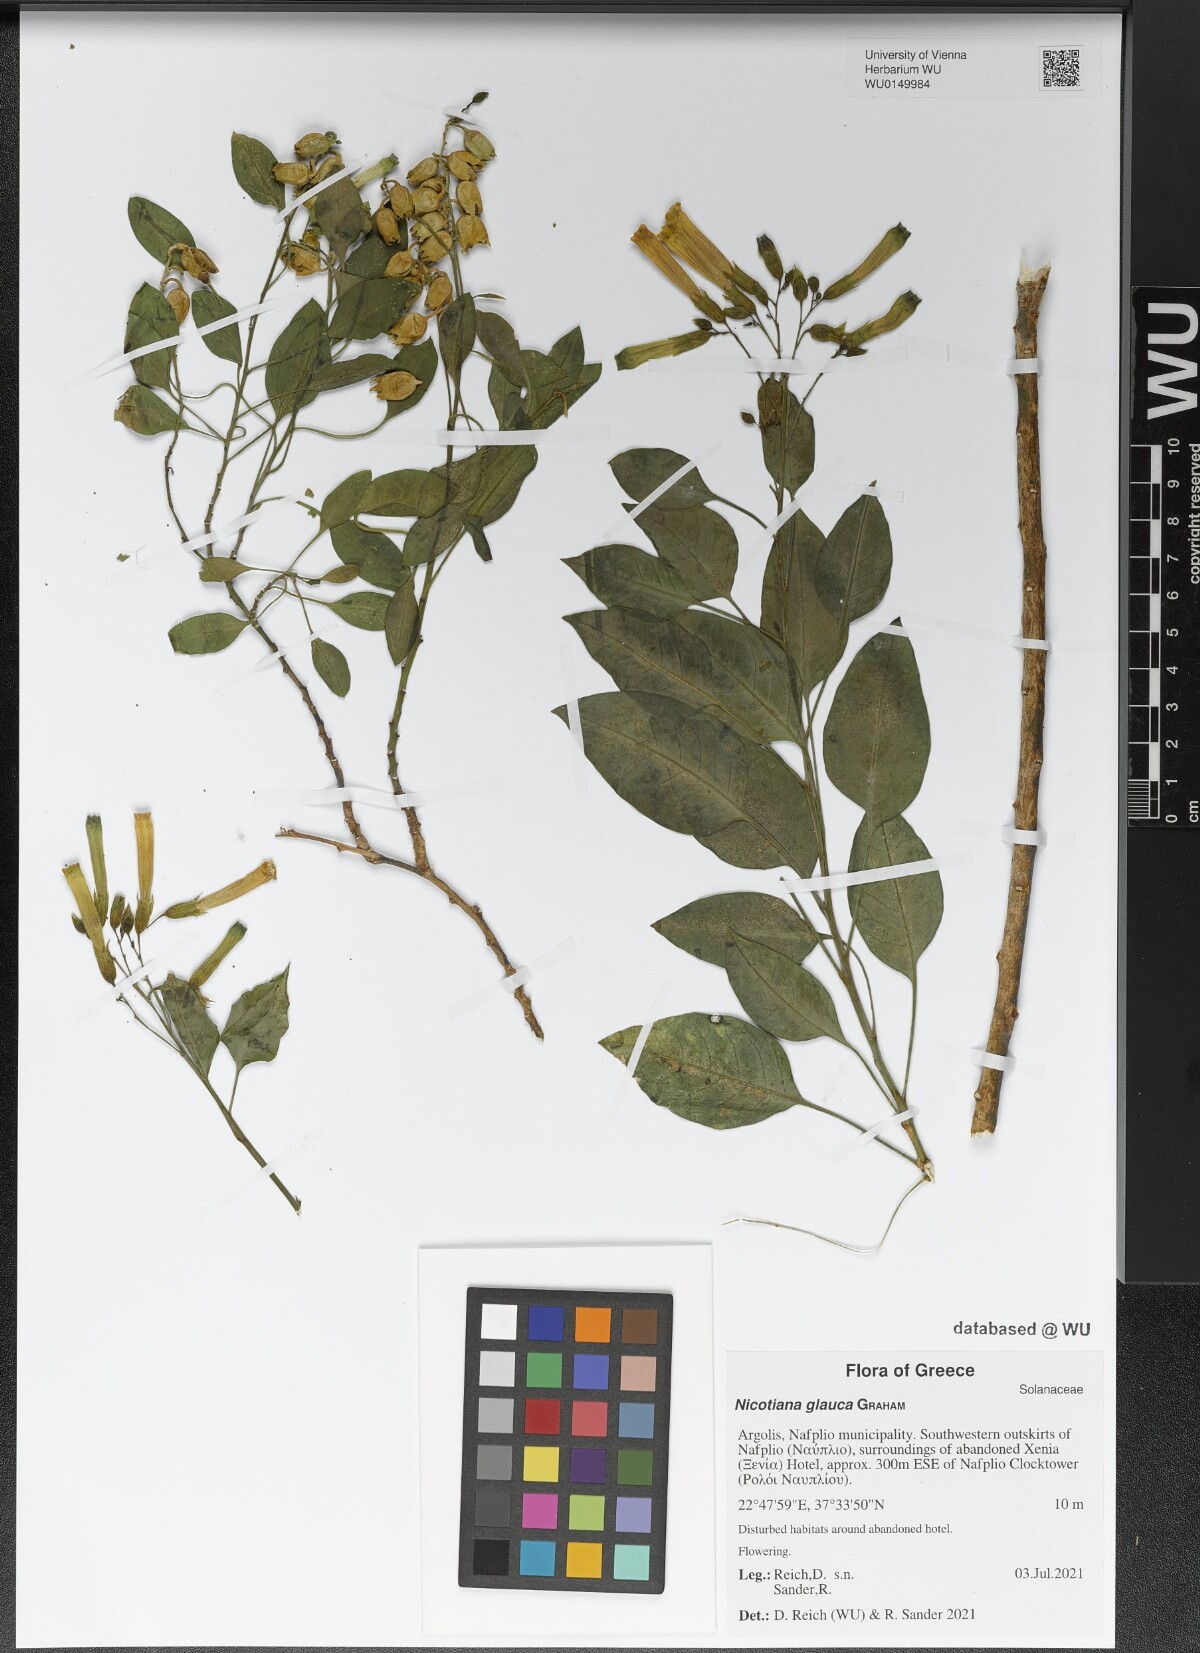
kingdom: Plantae
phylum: Tracheophyta
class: Magnoliopsida
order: Solanales
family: Solanaceae
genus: Nicotiana
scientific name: Nicotiana glauca
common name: Tree tobacco
